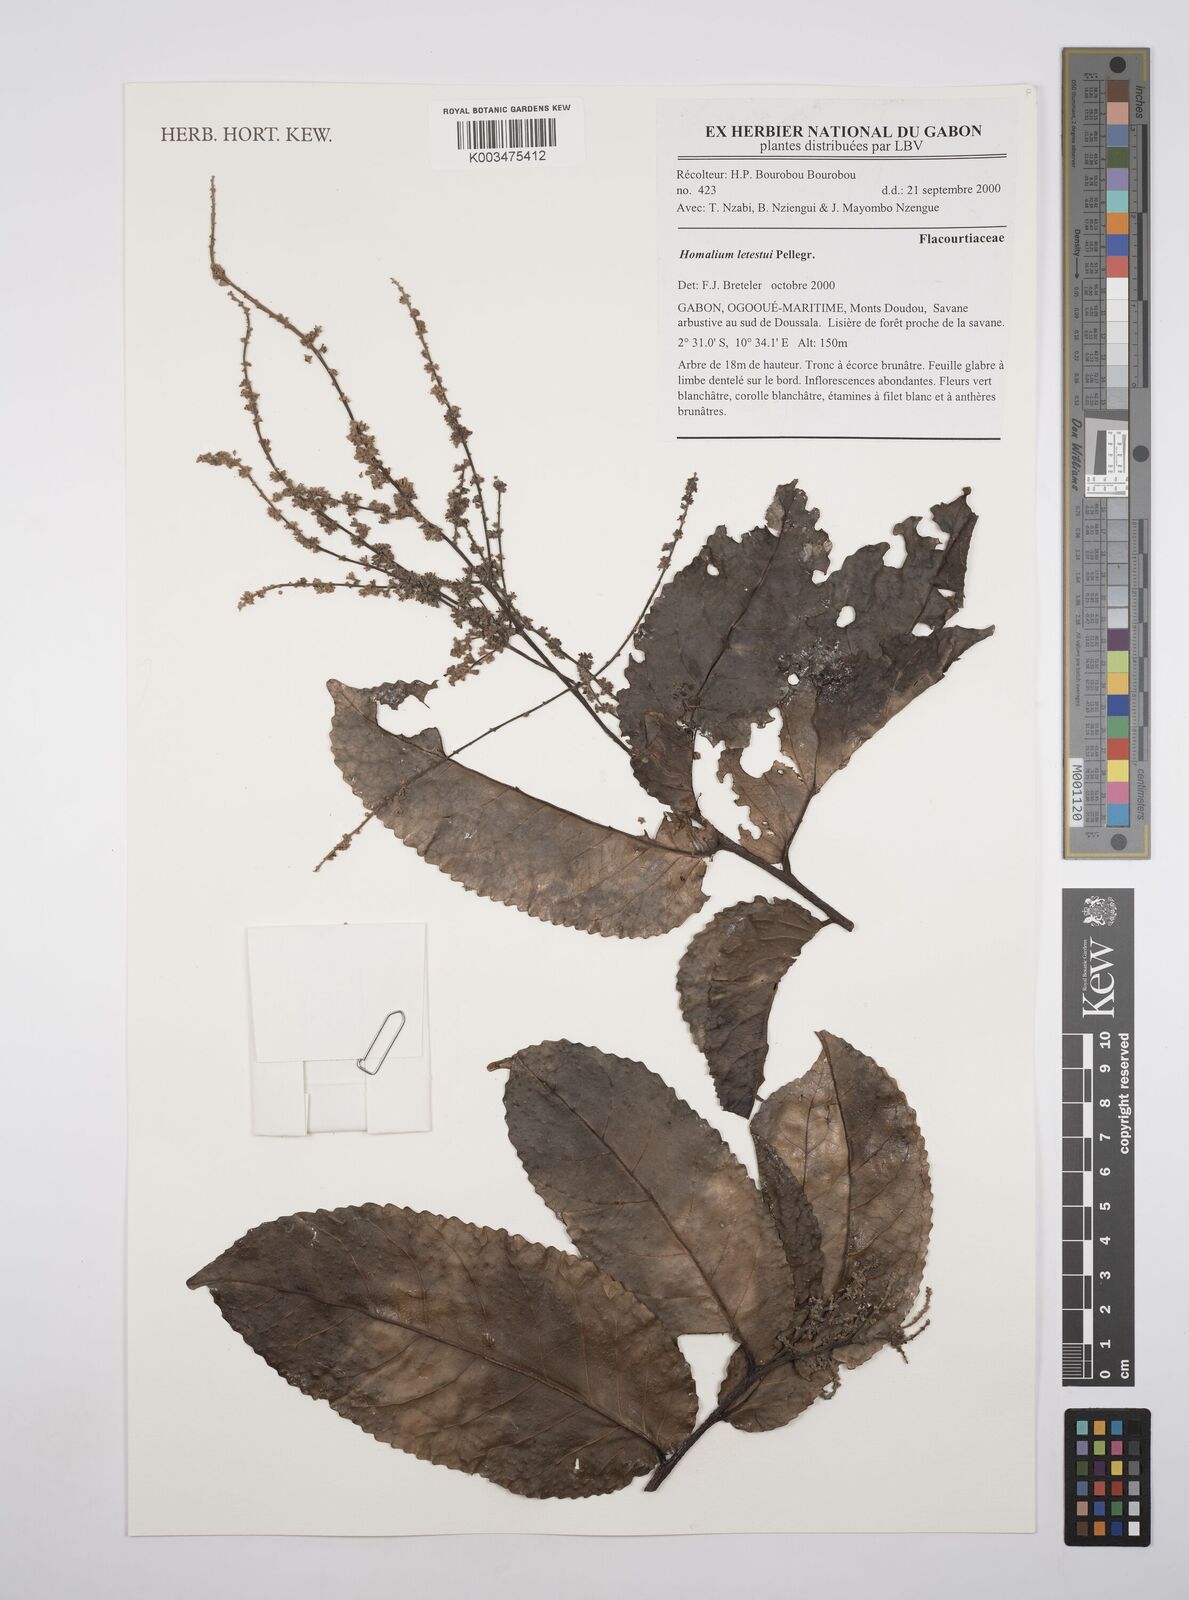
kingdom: Plantae
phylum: Tracheophyta
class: Magnoliopsida
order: Malpighiales
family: Salicaceae
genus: Homalium
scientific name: Homalium letestui
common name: African homalium
